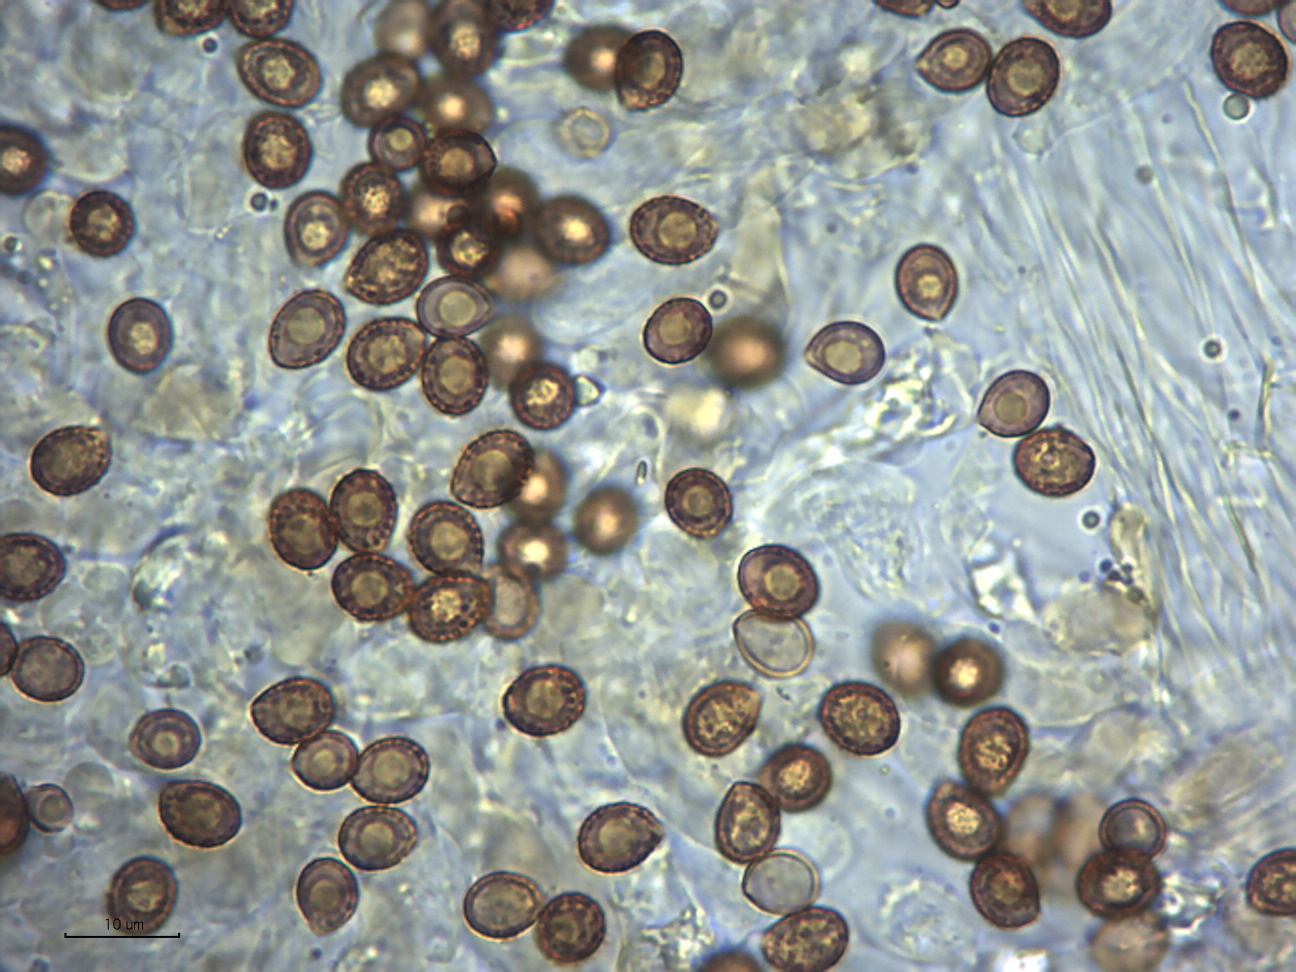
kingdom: Fungi
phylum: Basidiomycota
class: Agaricomycetes
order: Agaricales
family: Cortinariaceae
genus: Cortinarius
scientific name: Cortinarius tabularis
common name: lerbrun slørhat
